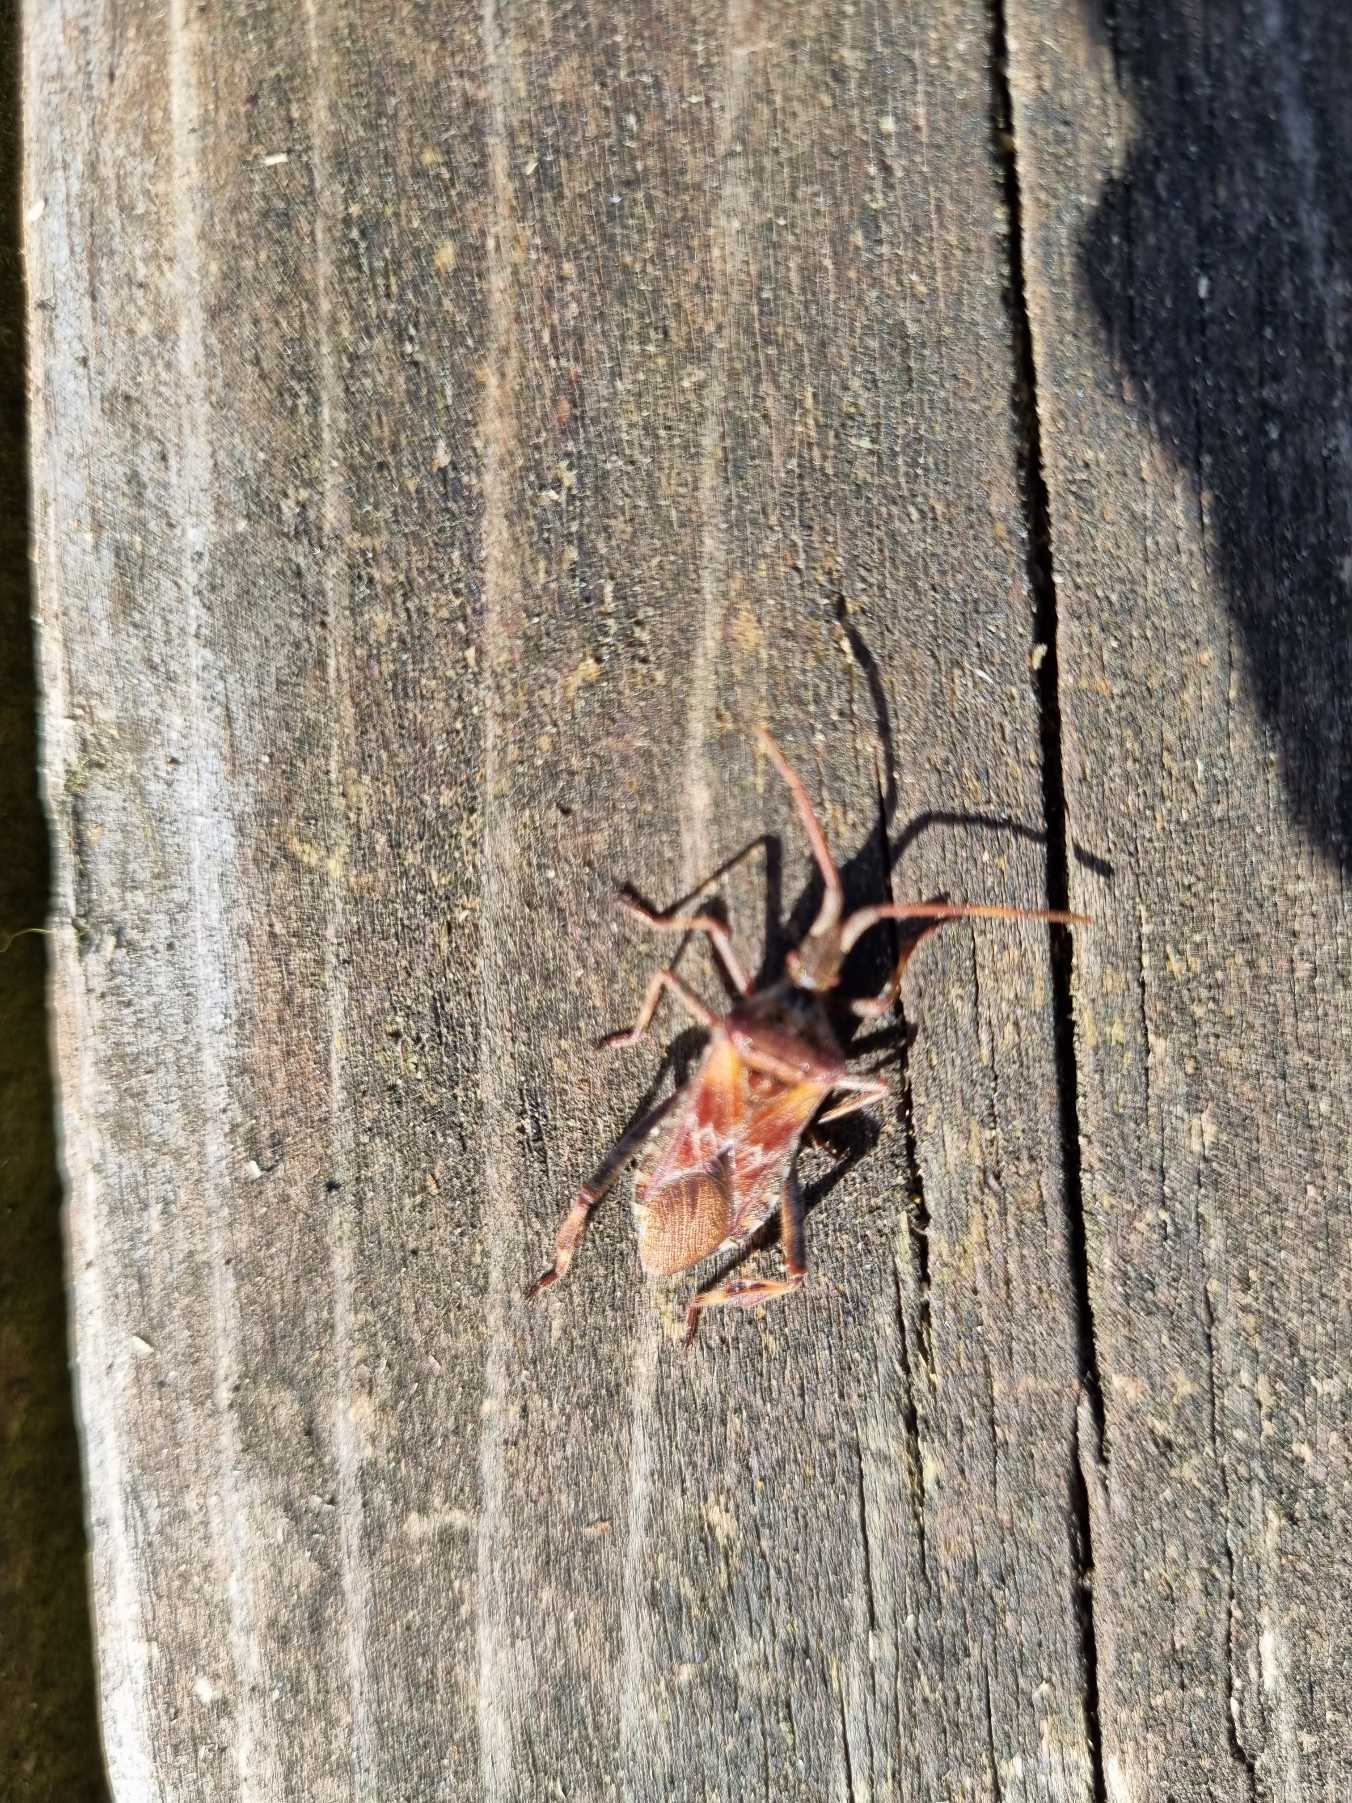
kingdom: Animalia
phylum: Arthropoda
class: Insecta
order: Hemiptera
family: Coreidae
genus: Leptoglossus
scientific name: Leptoglossus occidentalis
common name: Amerikansk fyrretæge
